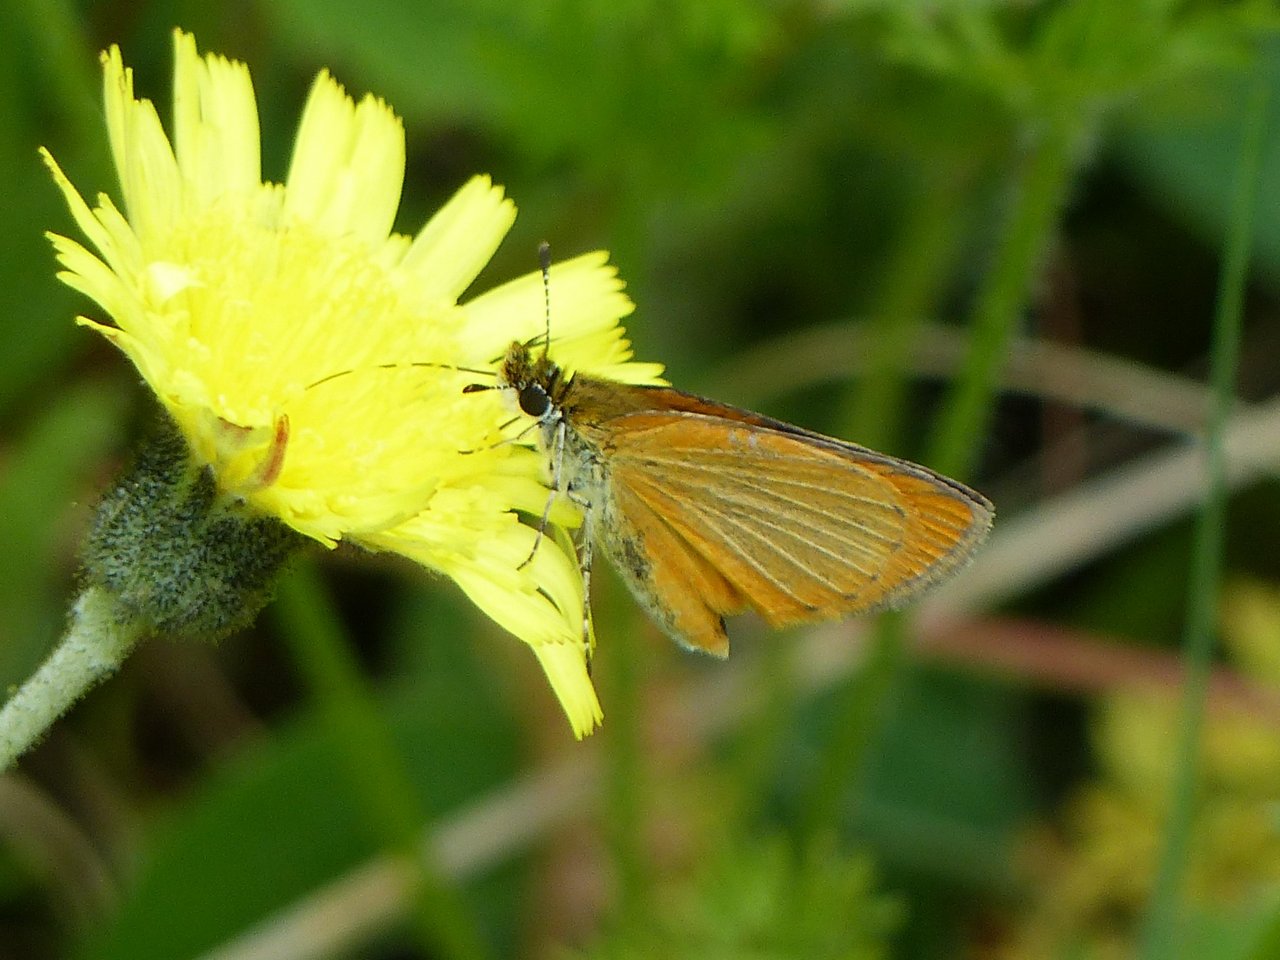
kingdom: Animalia
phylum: Arthropoda
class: Insecta
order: Lepidoptera
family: Hesperiidae
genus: Ancyloxypha
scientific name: Ancyloxypha numitor
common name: Least Skipper
